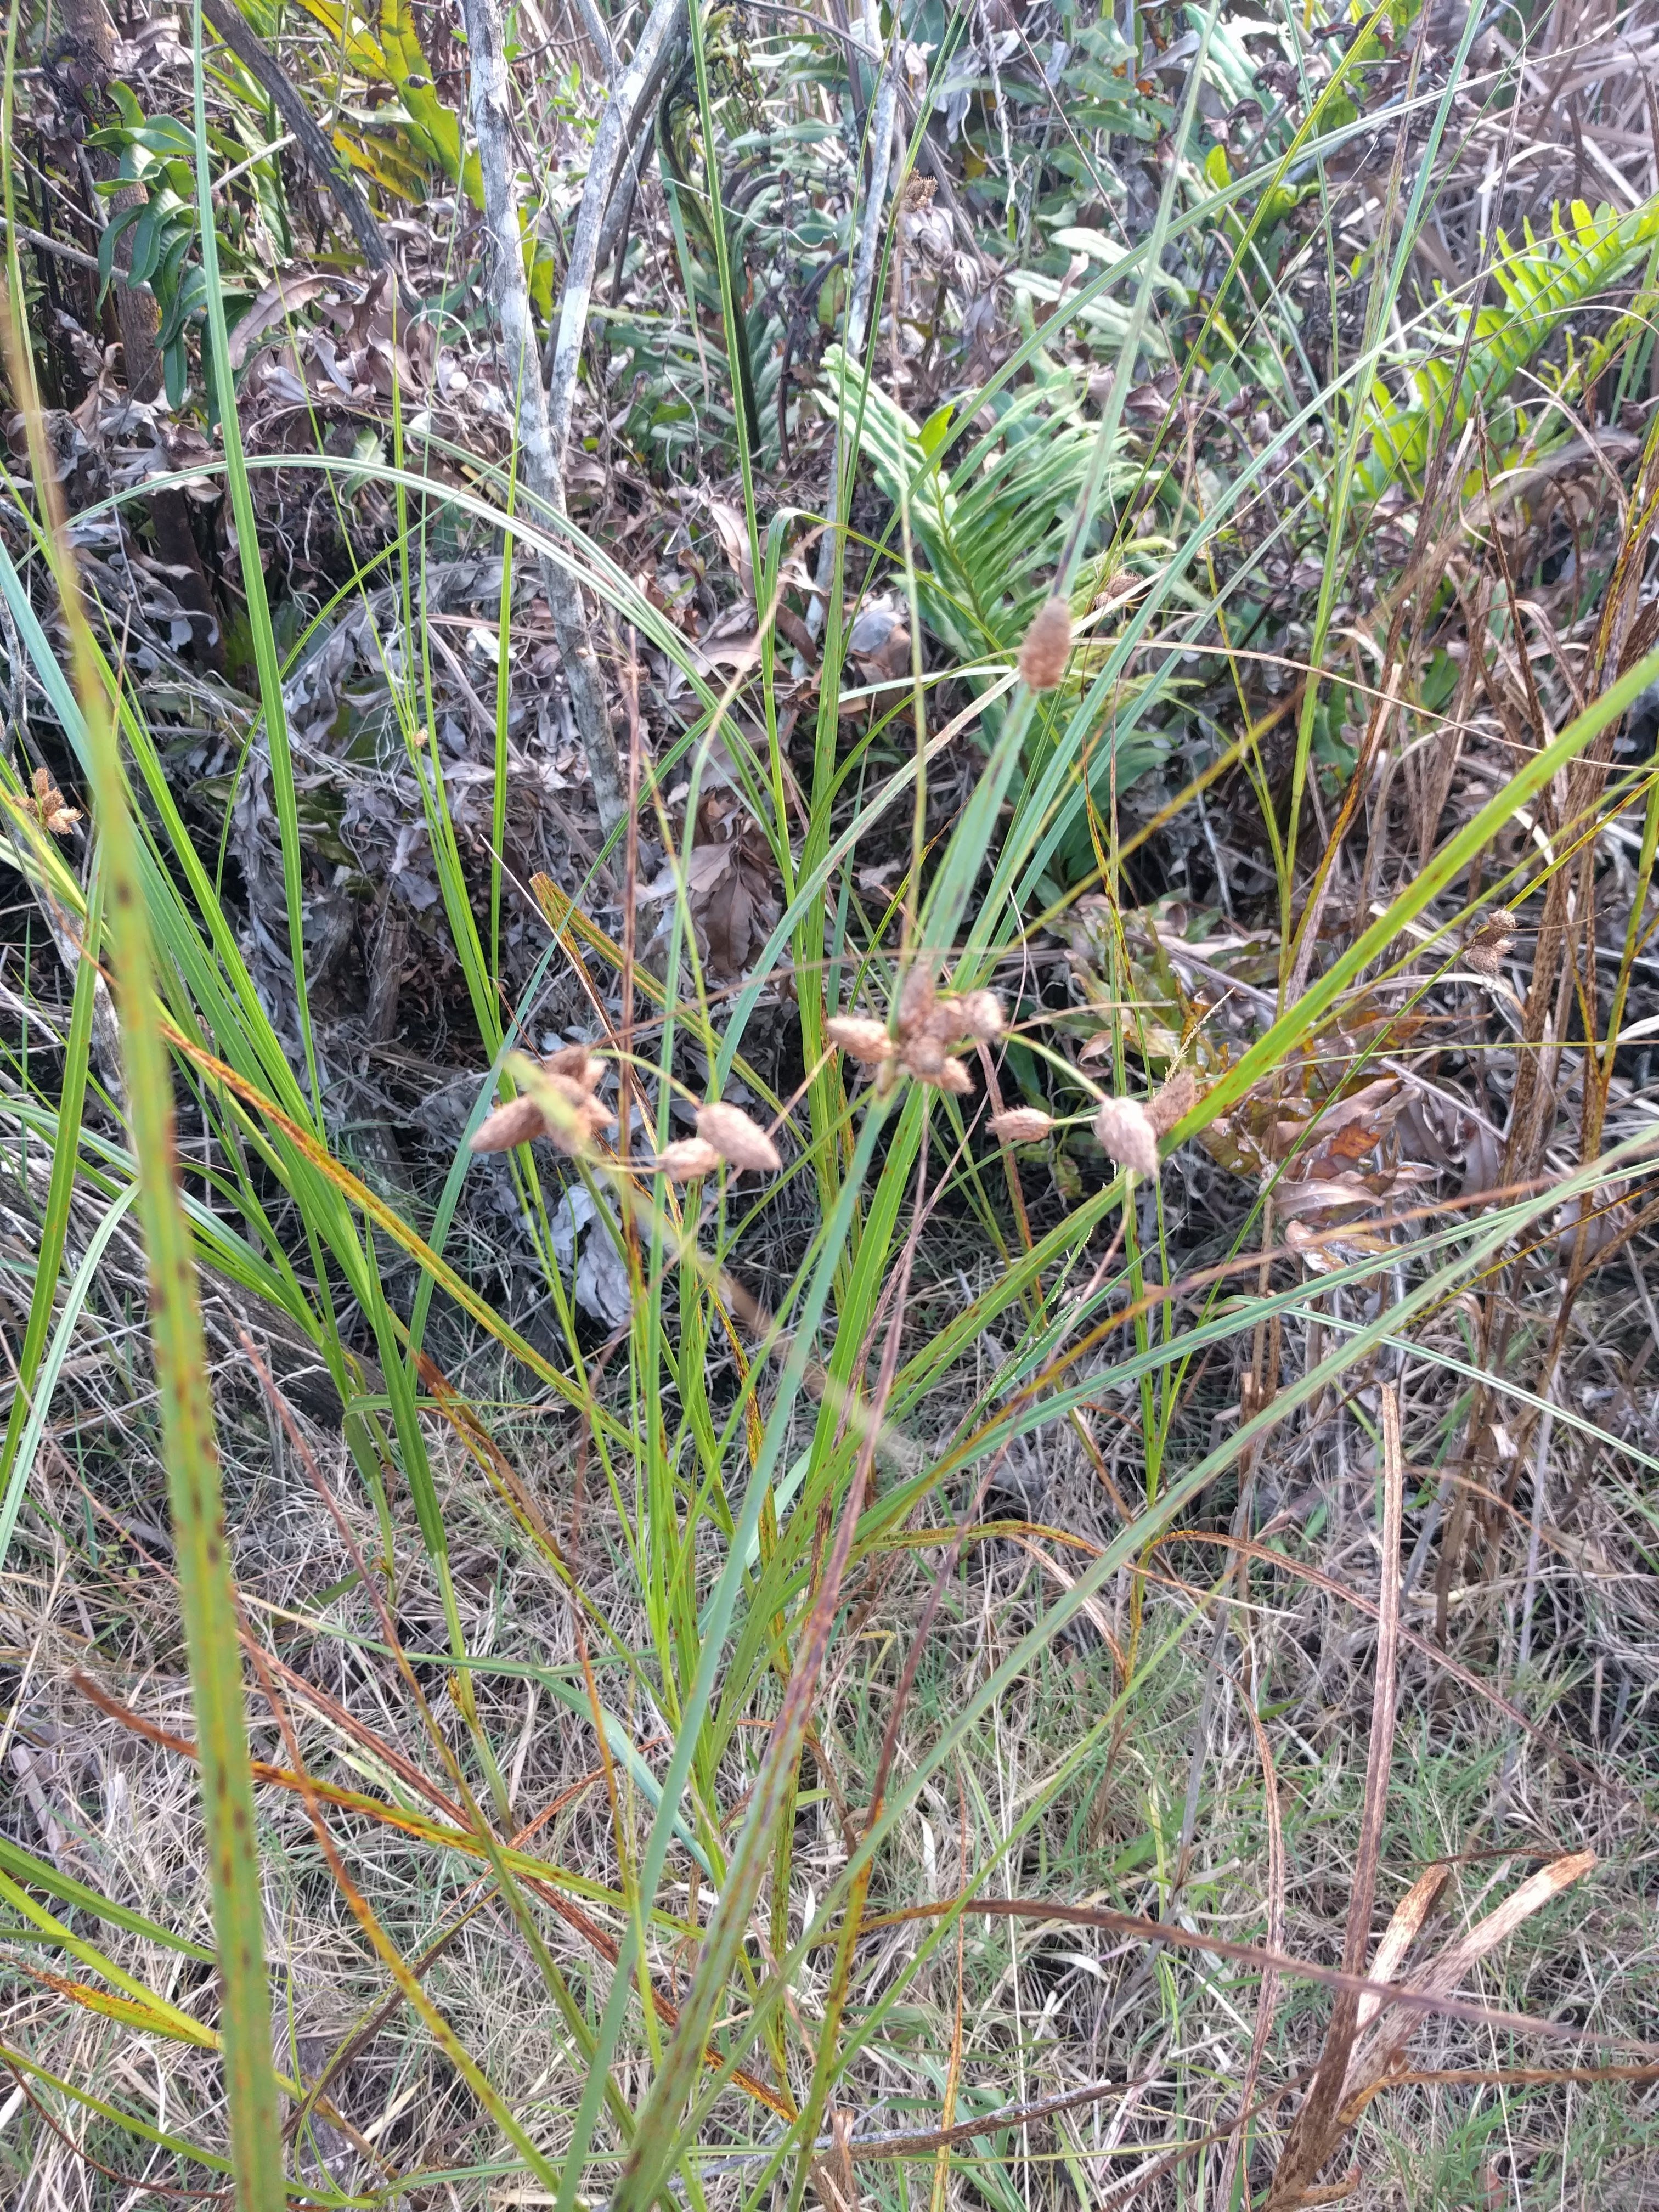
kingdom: Plantae
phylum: Tracheophyta
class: Liliopsida
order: Poales
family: Cyperaceae
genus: Bolboschoenus
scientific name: Bolboschoenus robustus
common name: Seacoast bulrush
